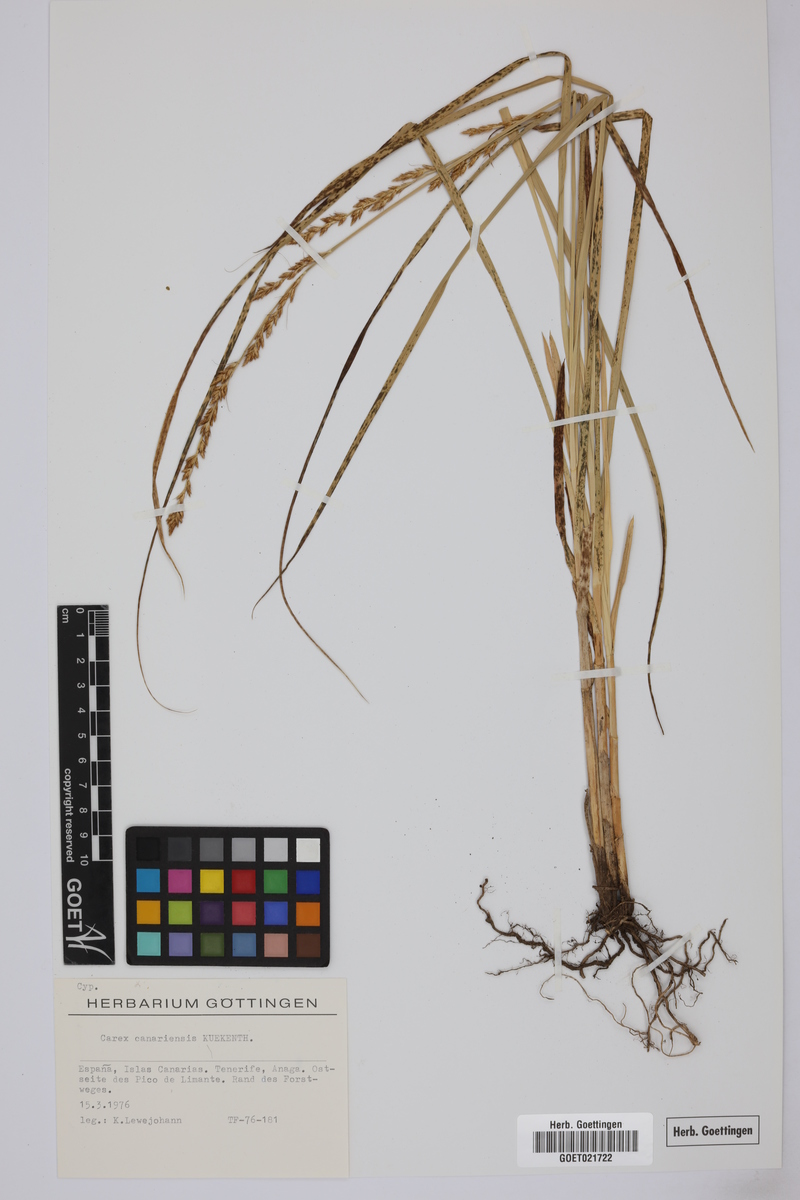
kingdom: Plantae
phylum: Tracheophyta
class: Liliopsida
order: Poales
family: Cyperaceae
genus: Carex
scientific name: Carex canariensis
